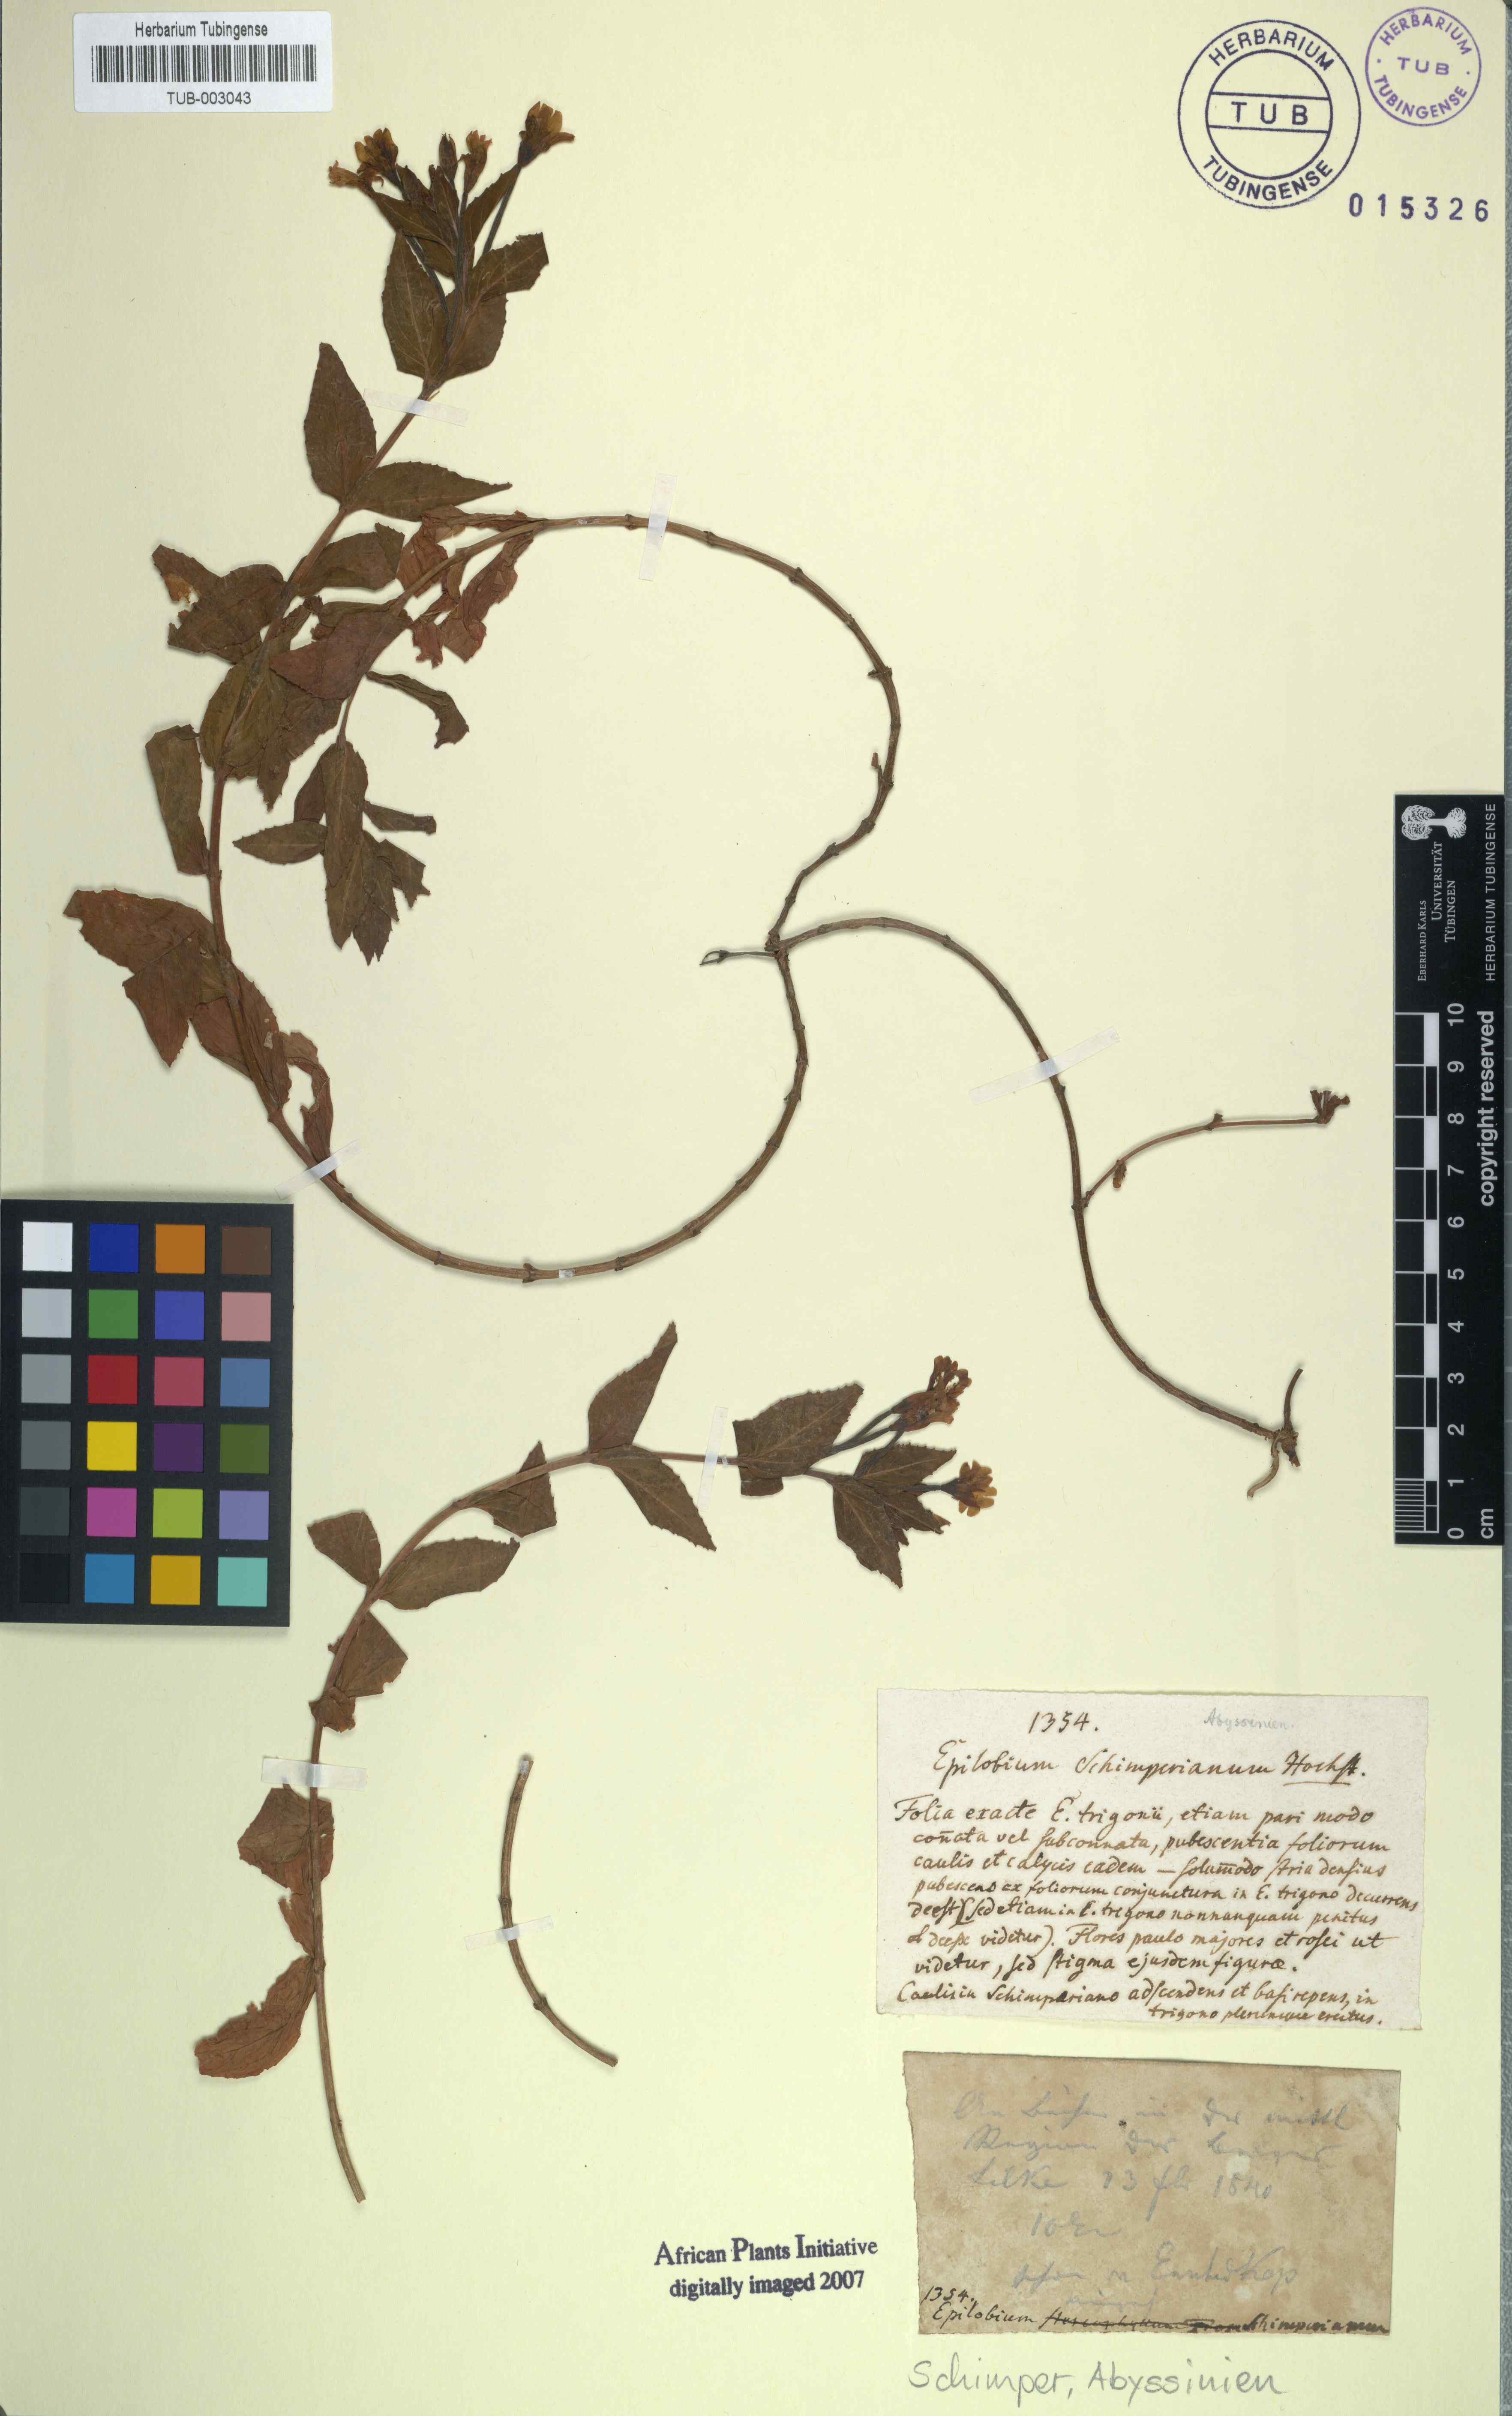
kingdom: Plantae
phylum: Tracheophyta
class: Magnoliopsida
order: Myrtales
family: Onagraceae
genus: Epilobium
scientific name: Epilobium stereophyllum
